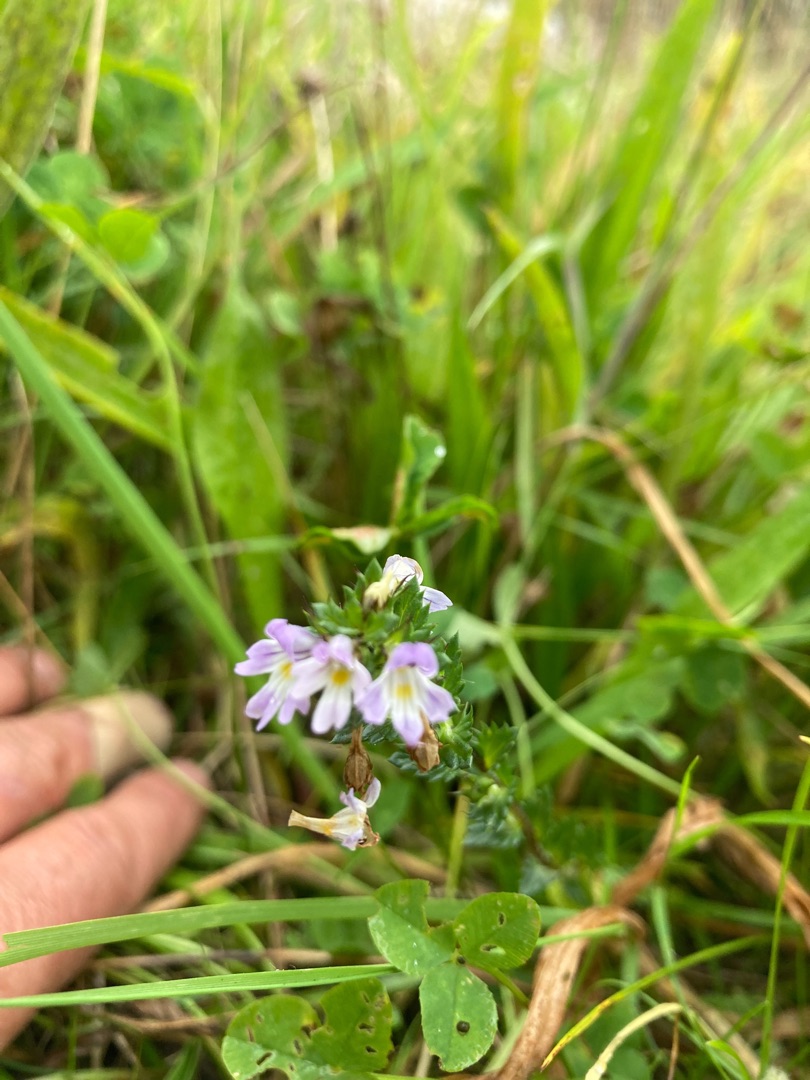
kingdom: Plantae
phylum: Tracheophyta
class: Magnoliopsida
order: Lamiales
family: Orobanchaceae
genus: Euphrasia
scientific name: Euphrasia stricta
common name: Spids øjentrøst
